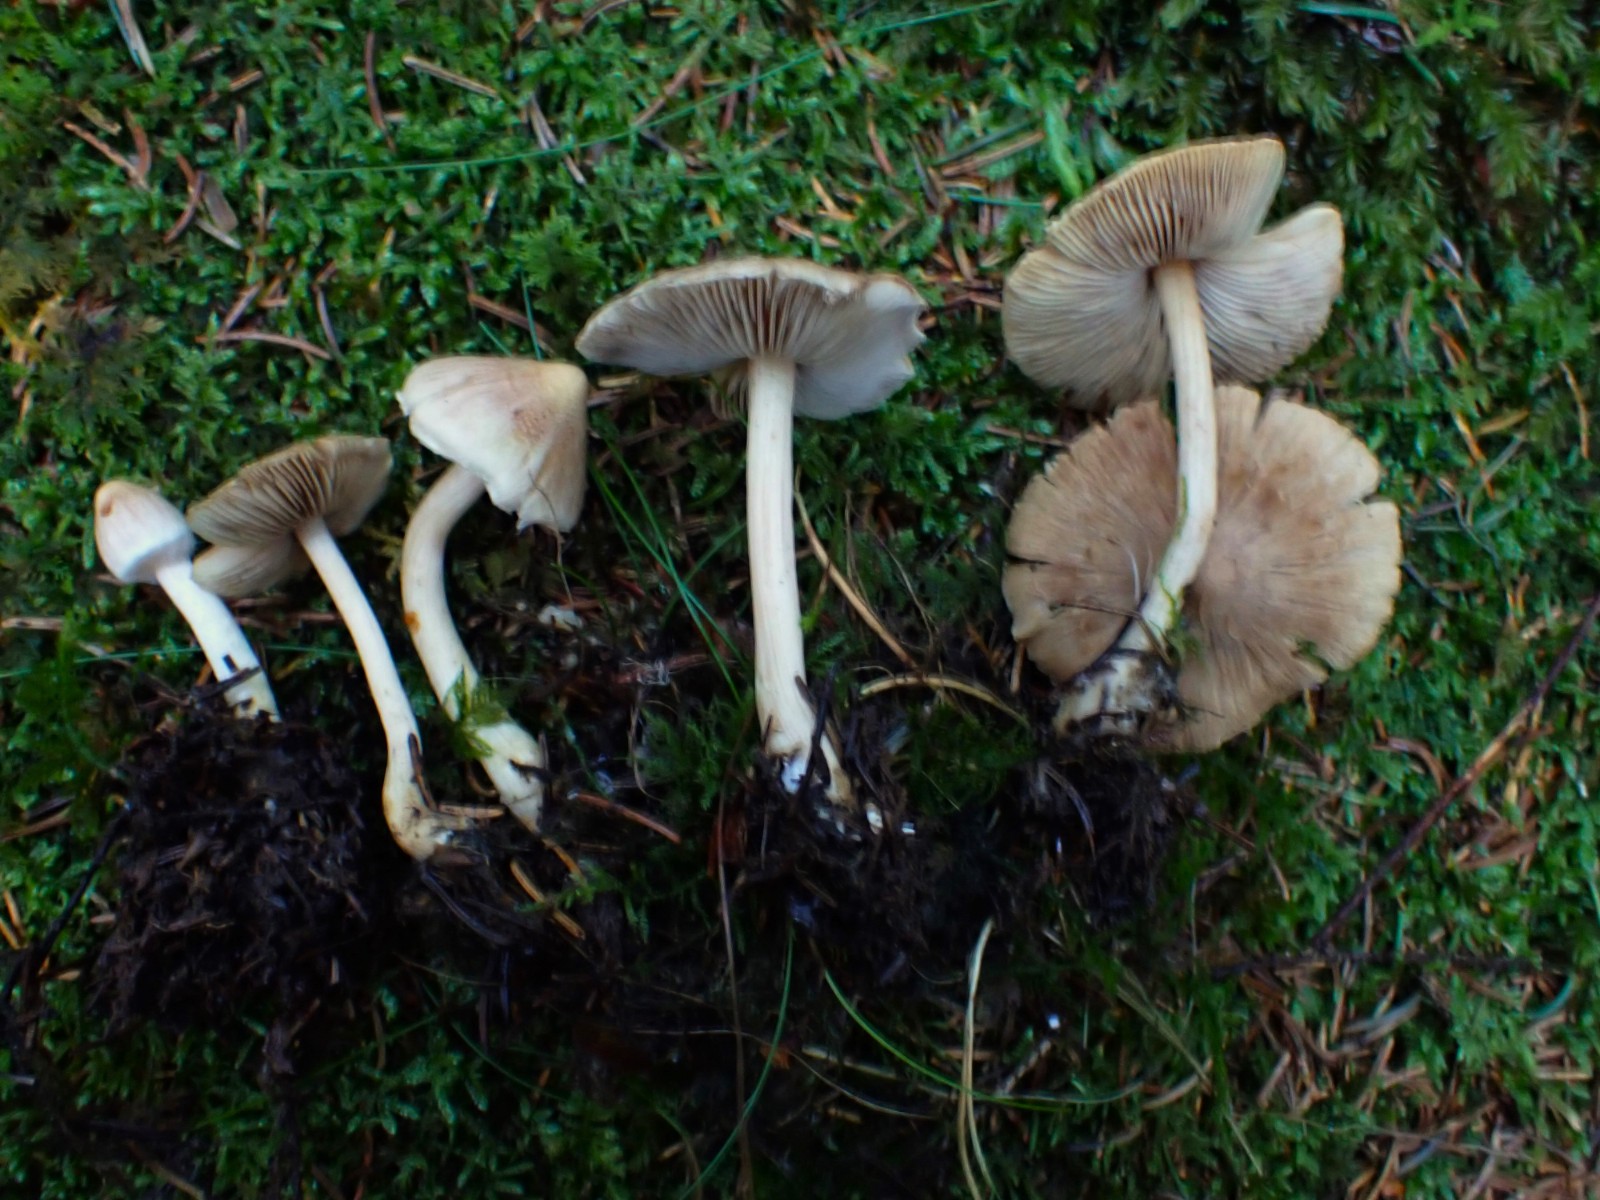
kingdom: Fungi
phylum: Basidiomycota
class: Agaricomycetes
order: Agaricales
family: Inocybaceae
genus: Inocybe
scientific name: Inocybe sindonia
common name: bleg trævlhat
